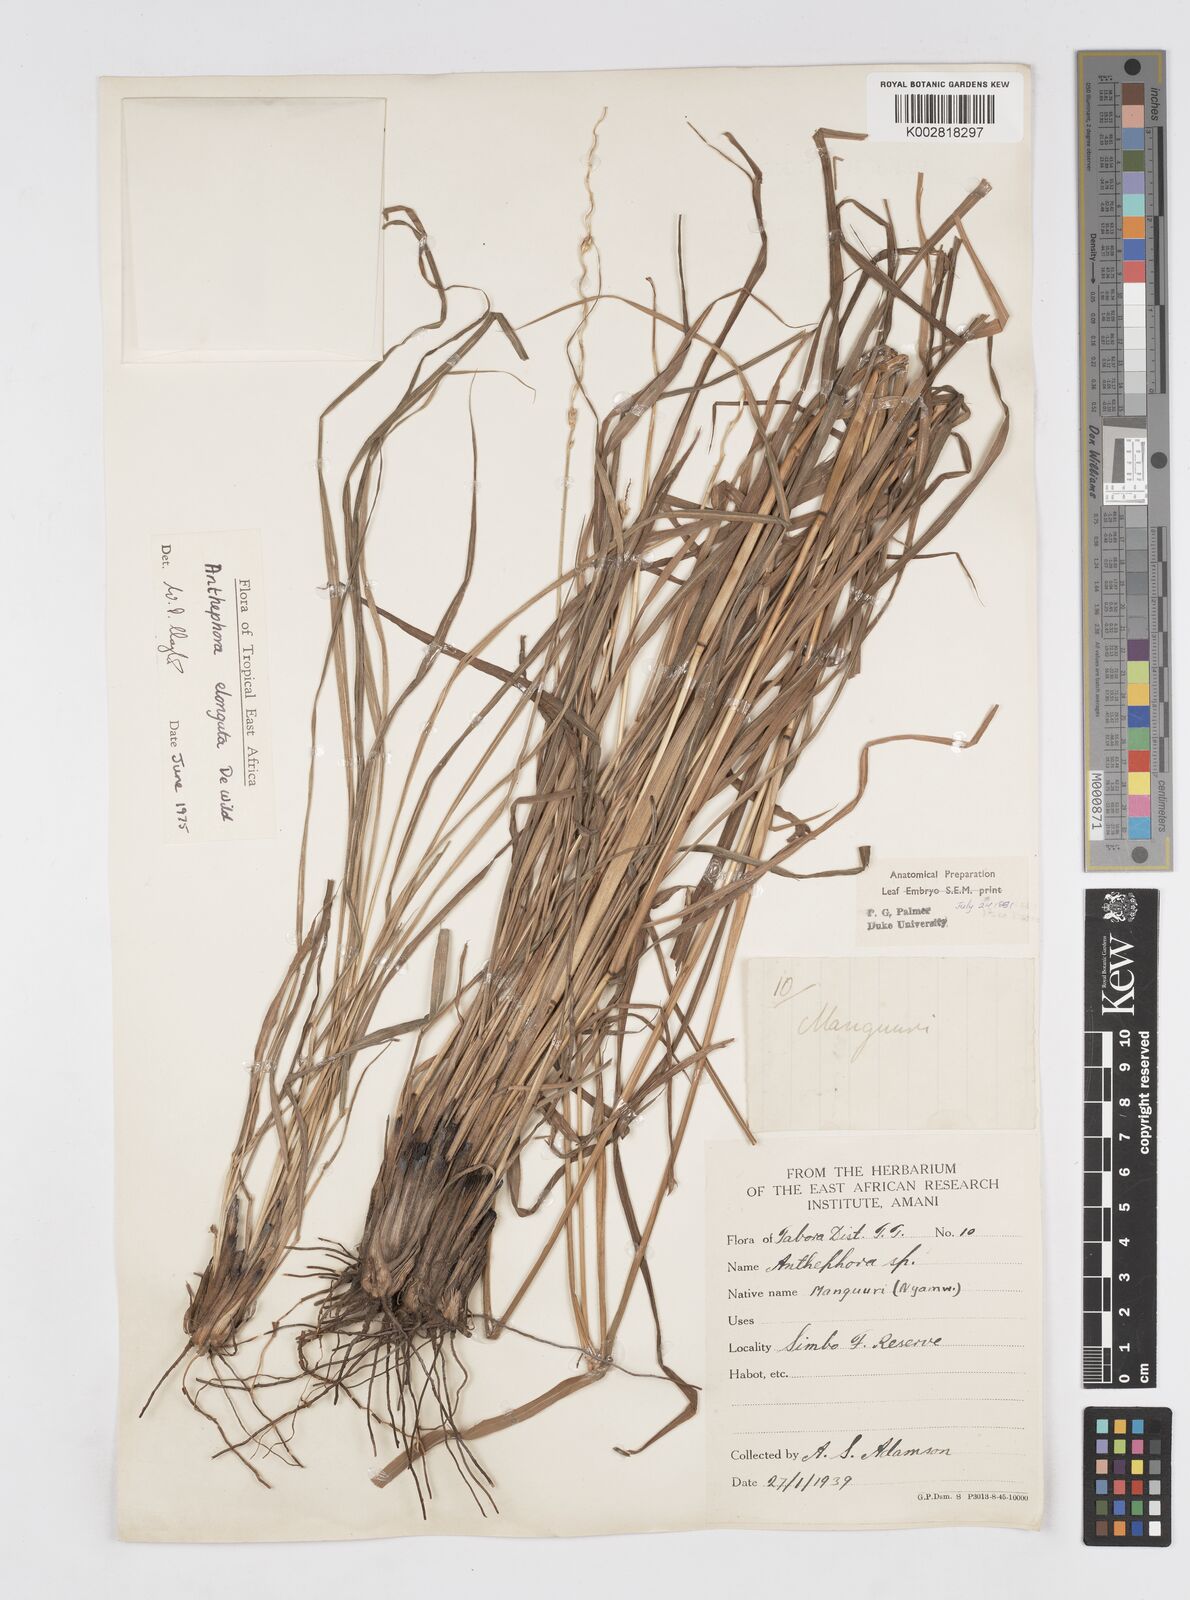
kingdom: Plantae
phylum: Tracheophyta
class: Liliopsida
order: Poales
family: Poaceae
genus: Anthephora
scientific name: Anthephora elongata
